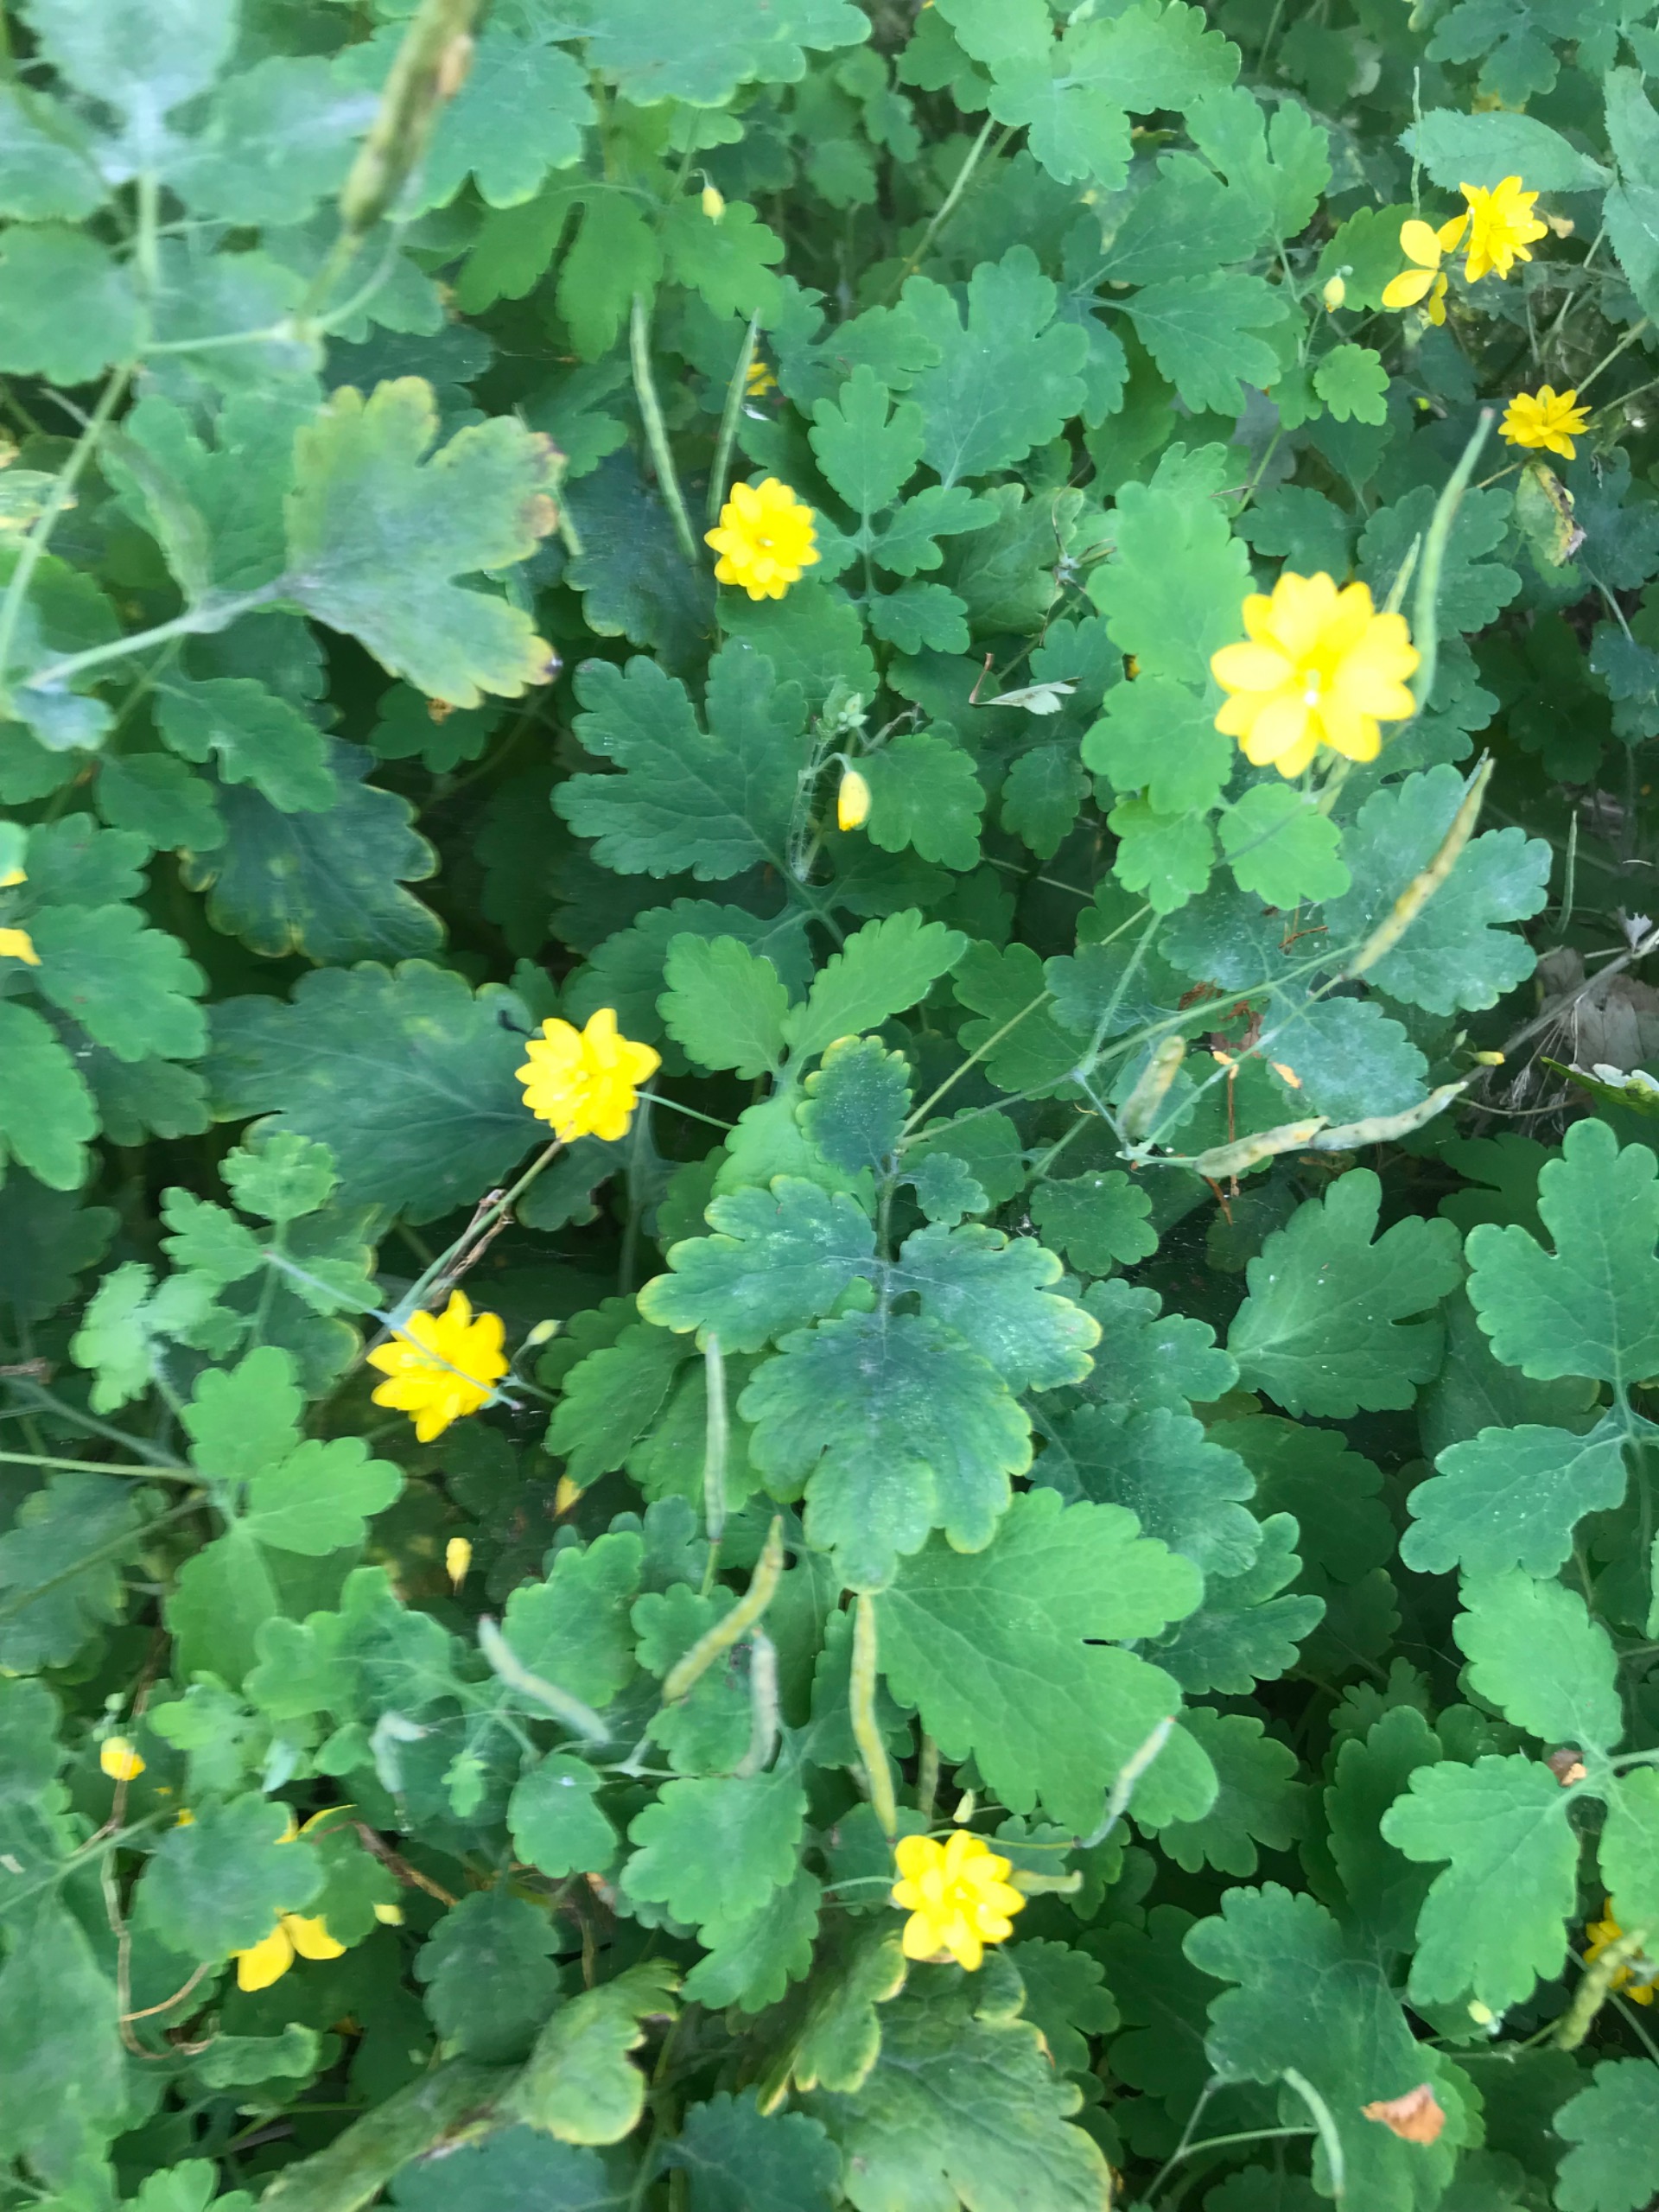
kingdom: Plantae
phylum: Tracheophyta
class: Magnoliopsida
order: Ranunculales
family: Papaveraceae
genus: Chelidonium
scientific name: Chelidonium majus
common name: Svaleurt
